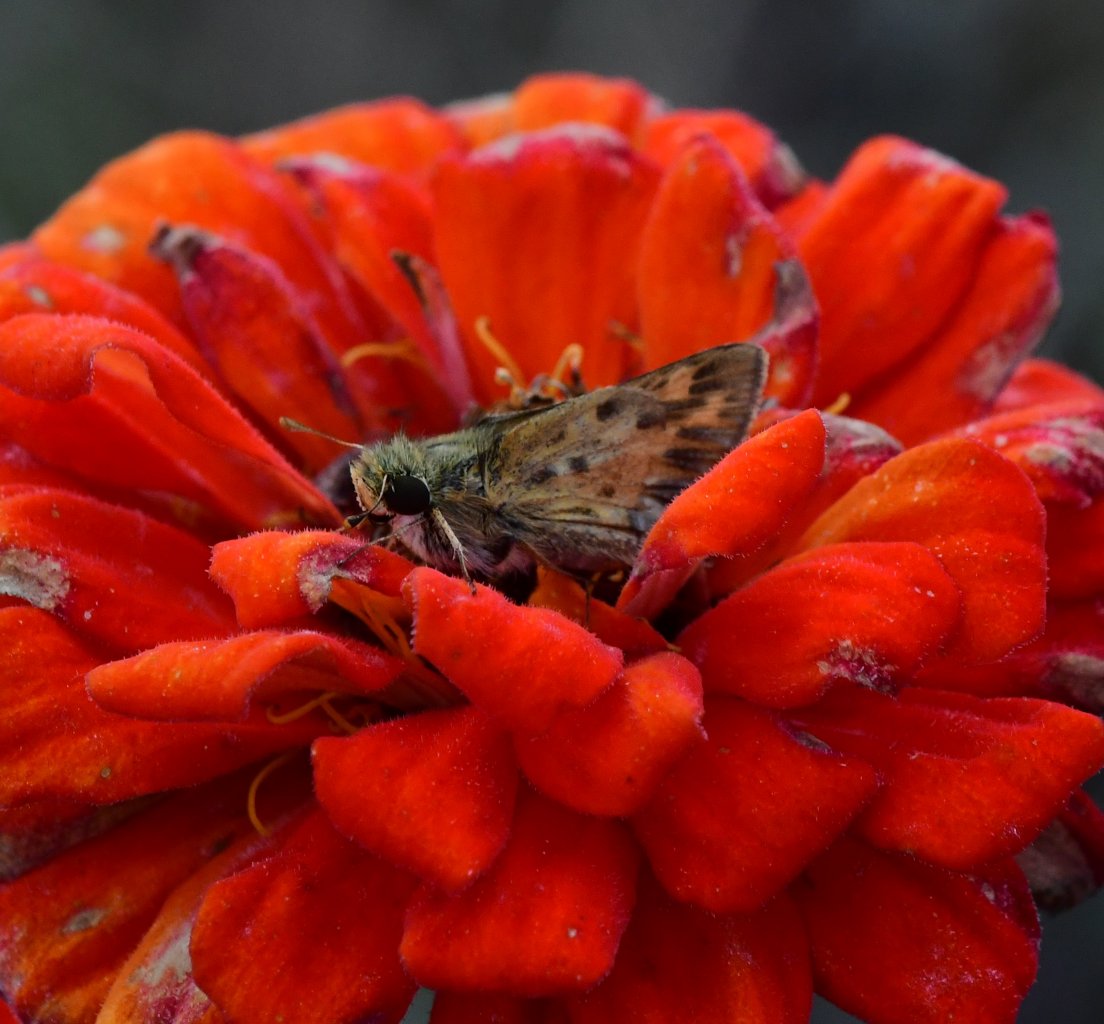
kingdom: Animalia
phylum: Arthropoda
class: Insecta
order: Lepidoptera
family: Hesperiidae
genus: Hylephila
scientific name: Hylephila phyleus
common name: Fiery Skipper
